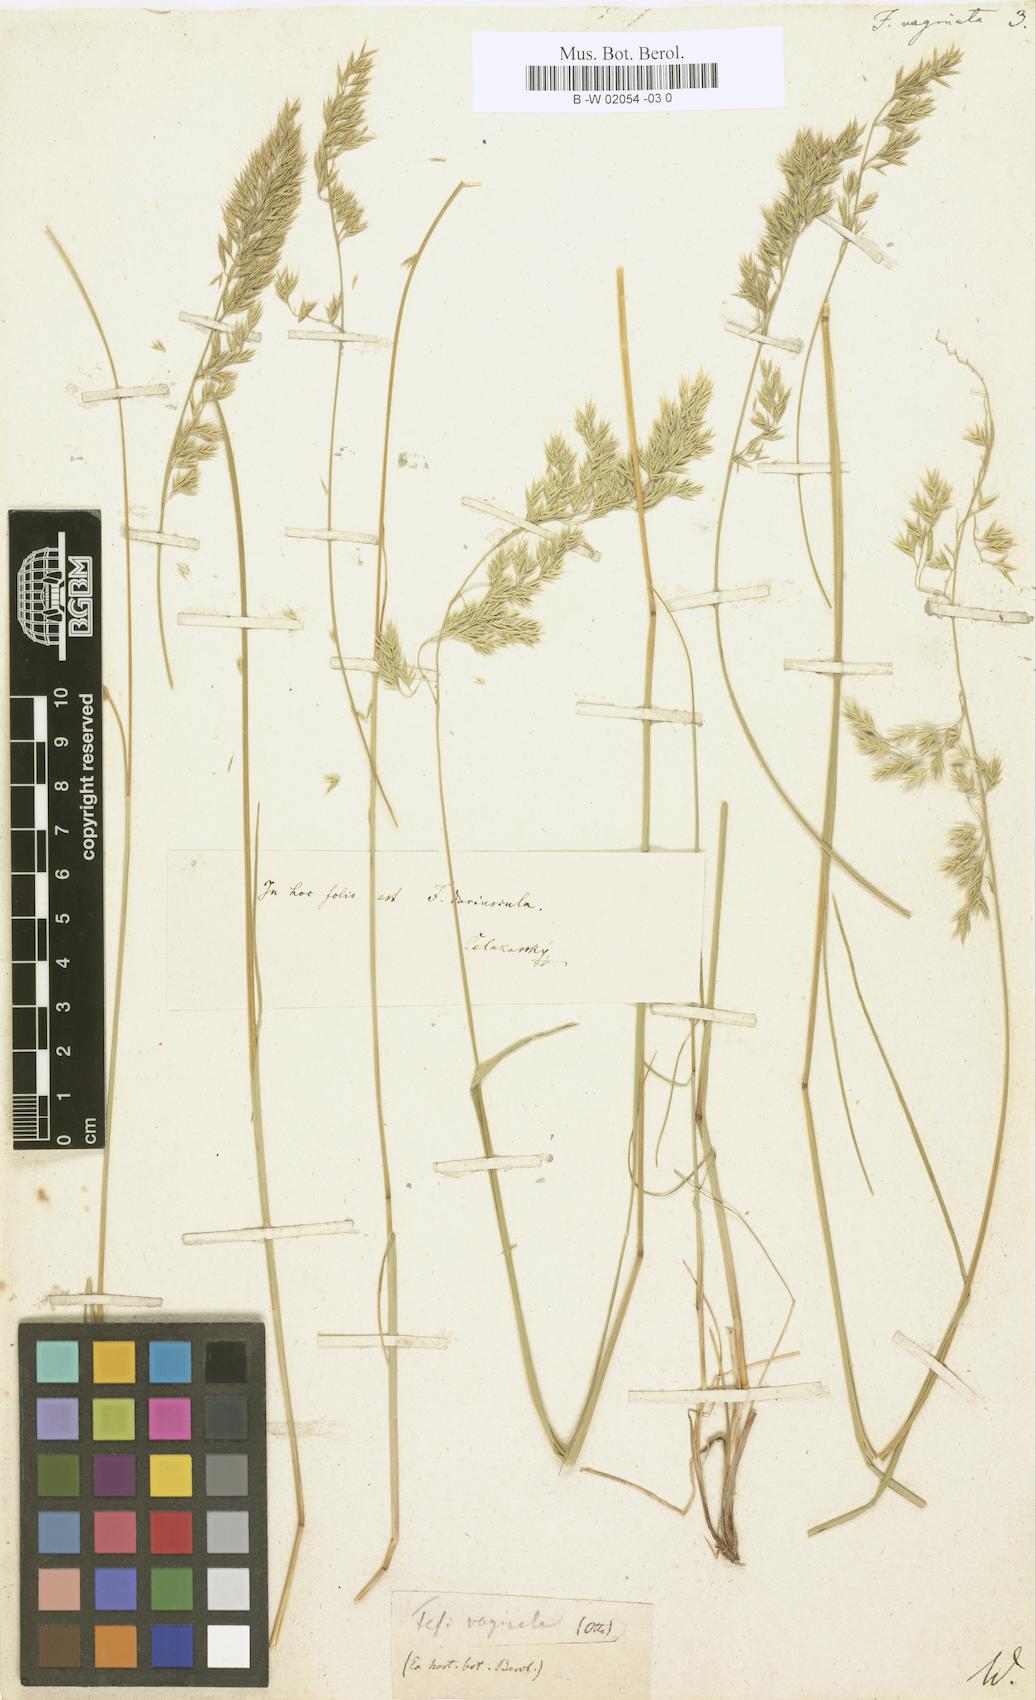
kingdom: Plantae
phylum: Tracheophyta
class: Liliopsida
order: Poales
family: Poaceae
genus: Festuca
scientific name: Festuca vaginata
